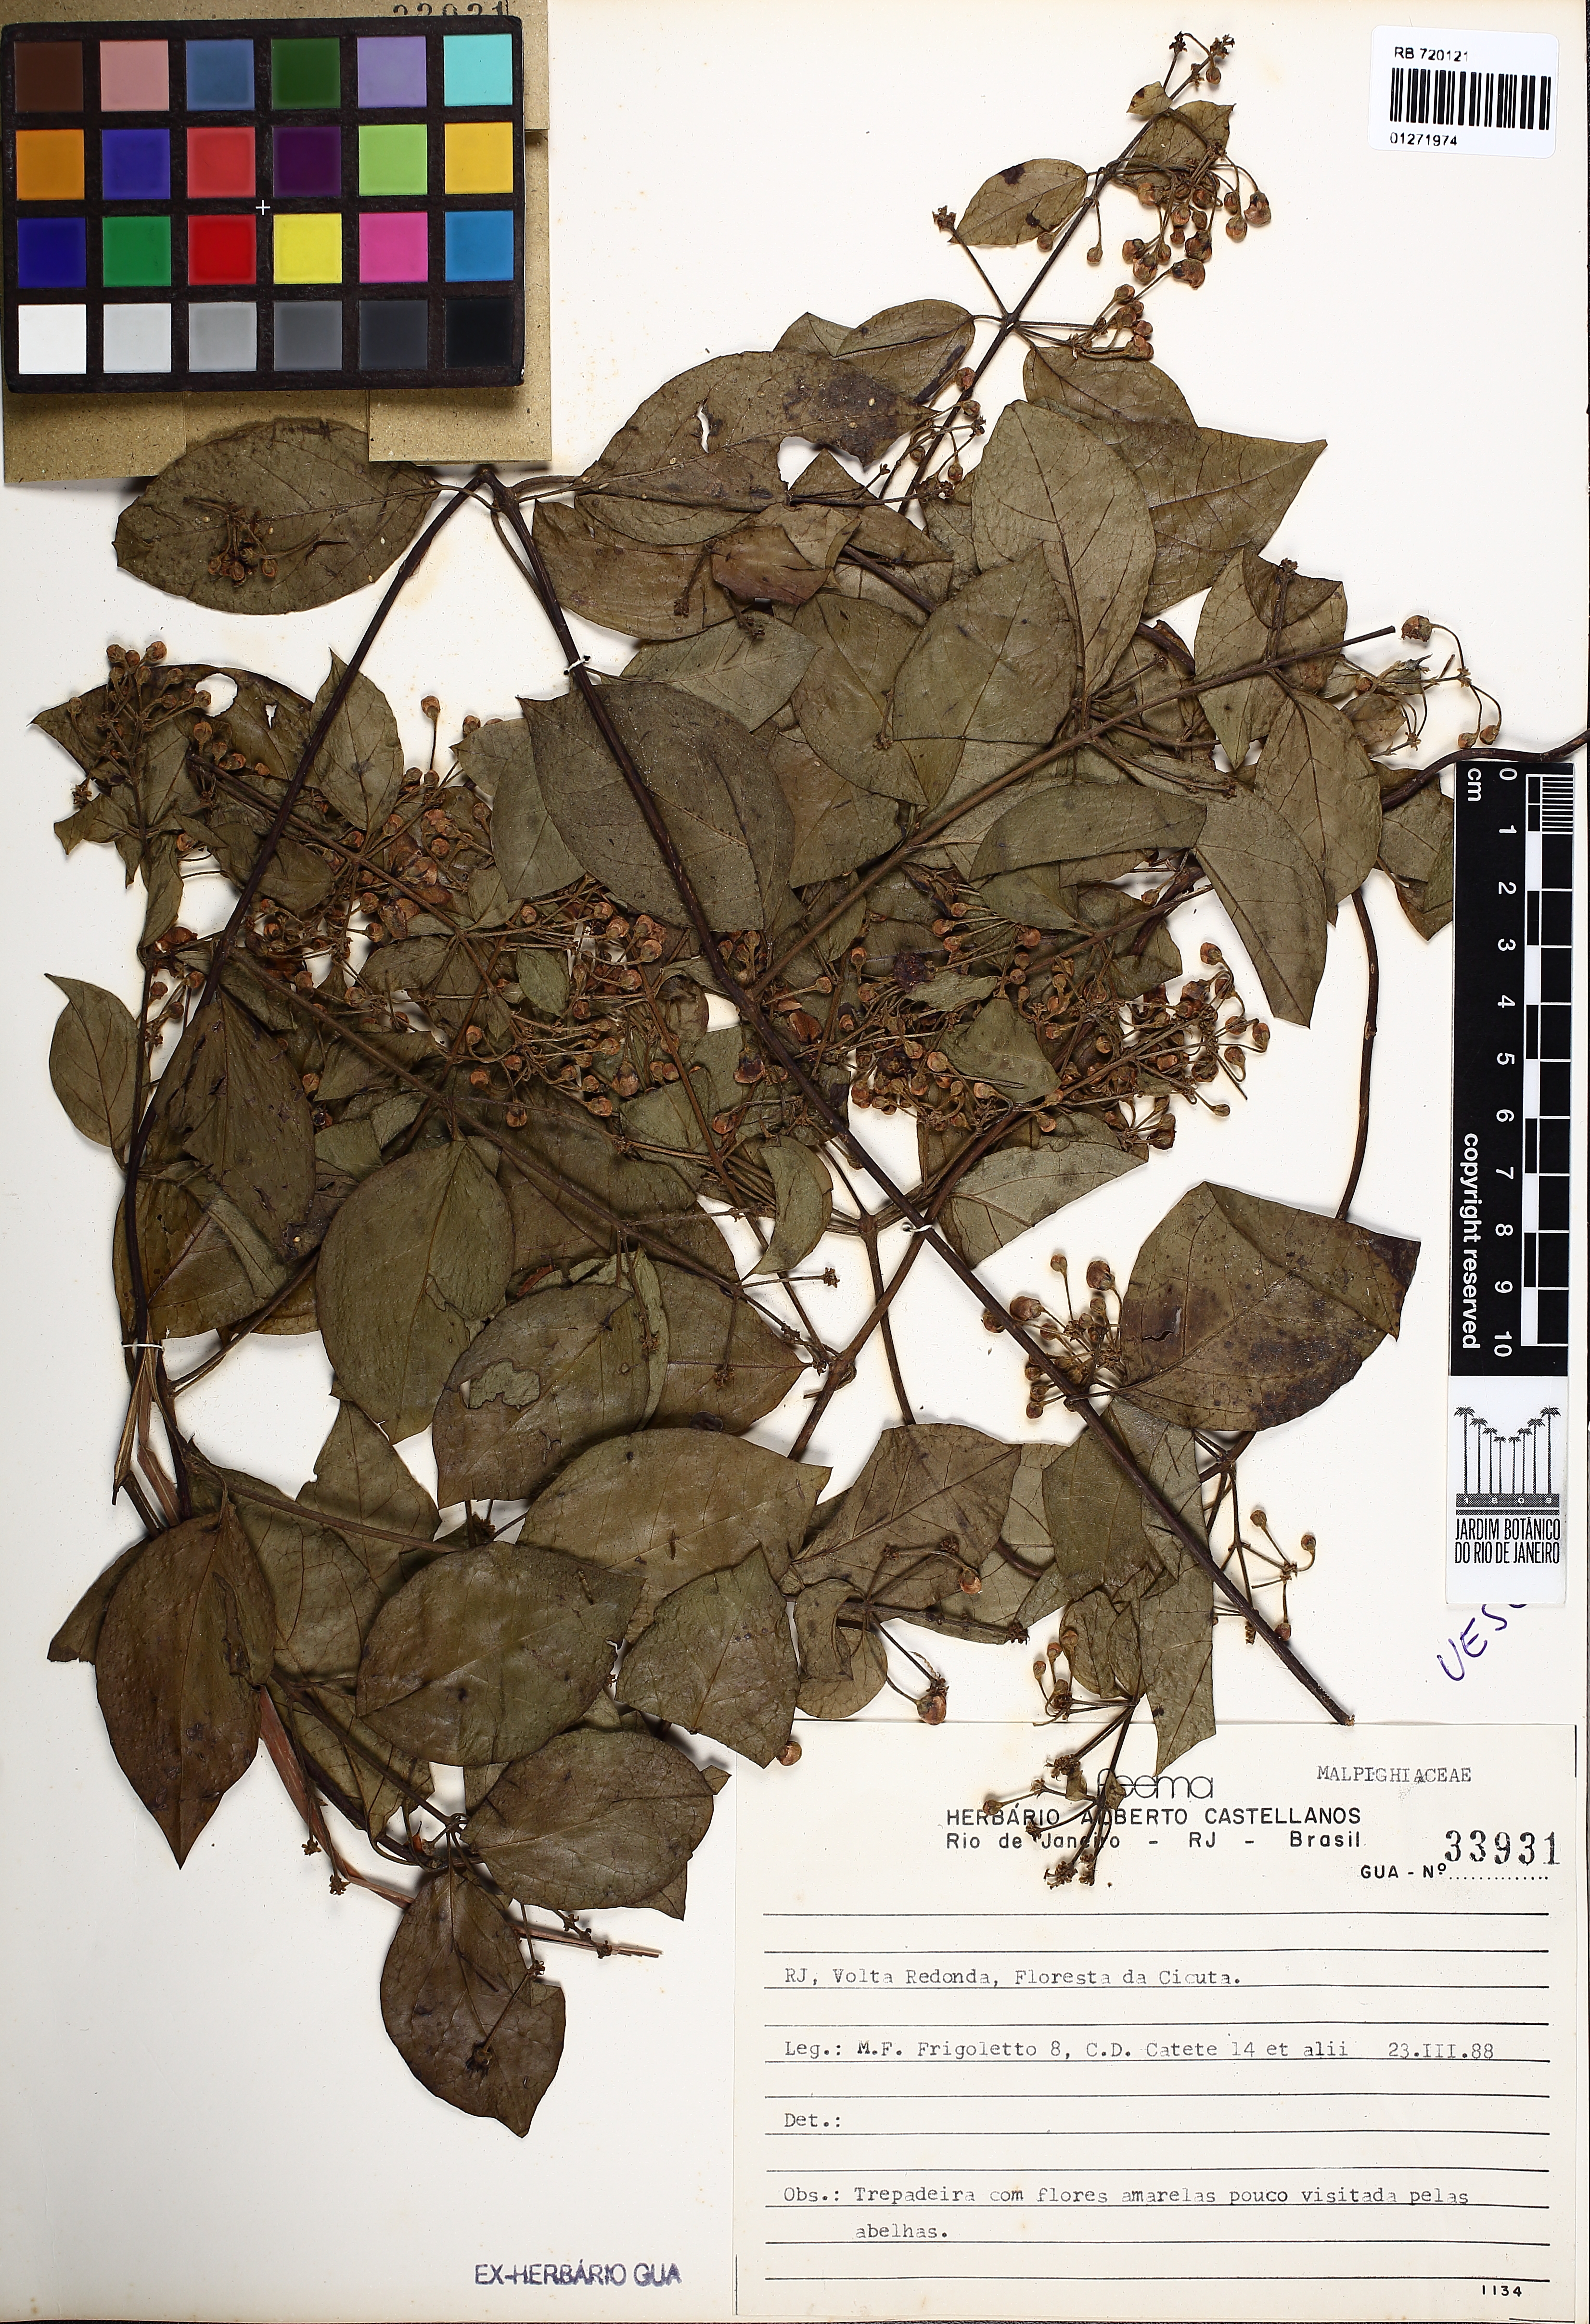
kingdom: Plantae
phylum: Tracheophyta
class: Magnoliopsida
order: Malpighiales
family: Malpighiaceae
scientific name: Malpighiaceae
